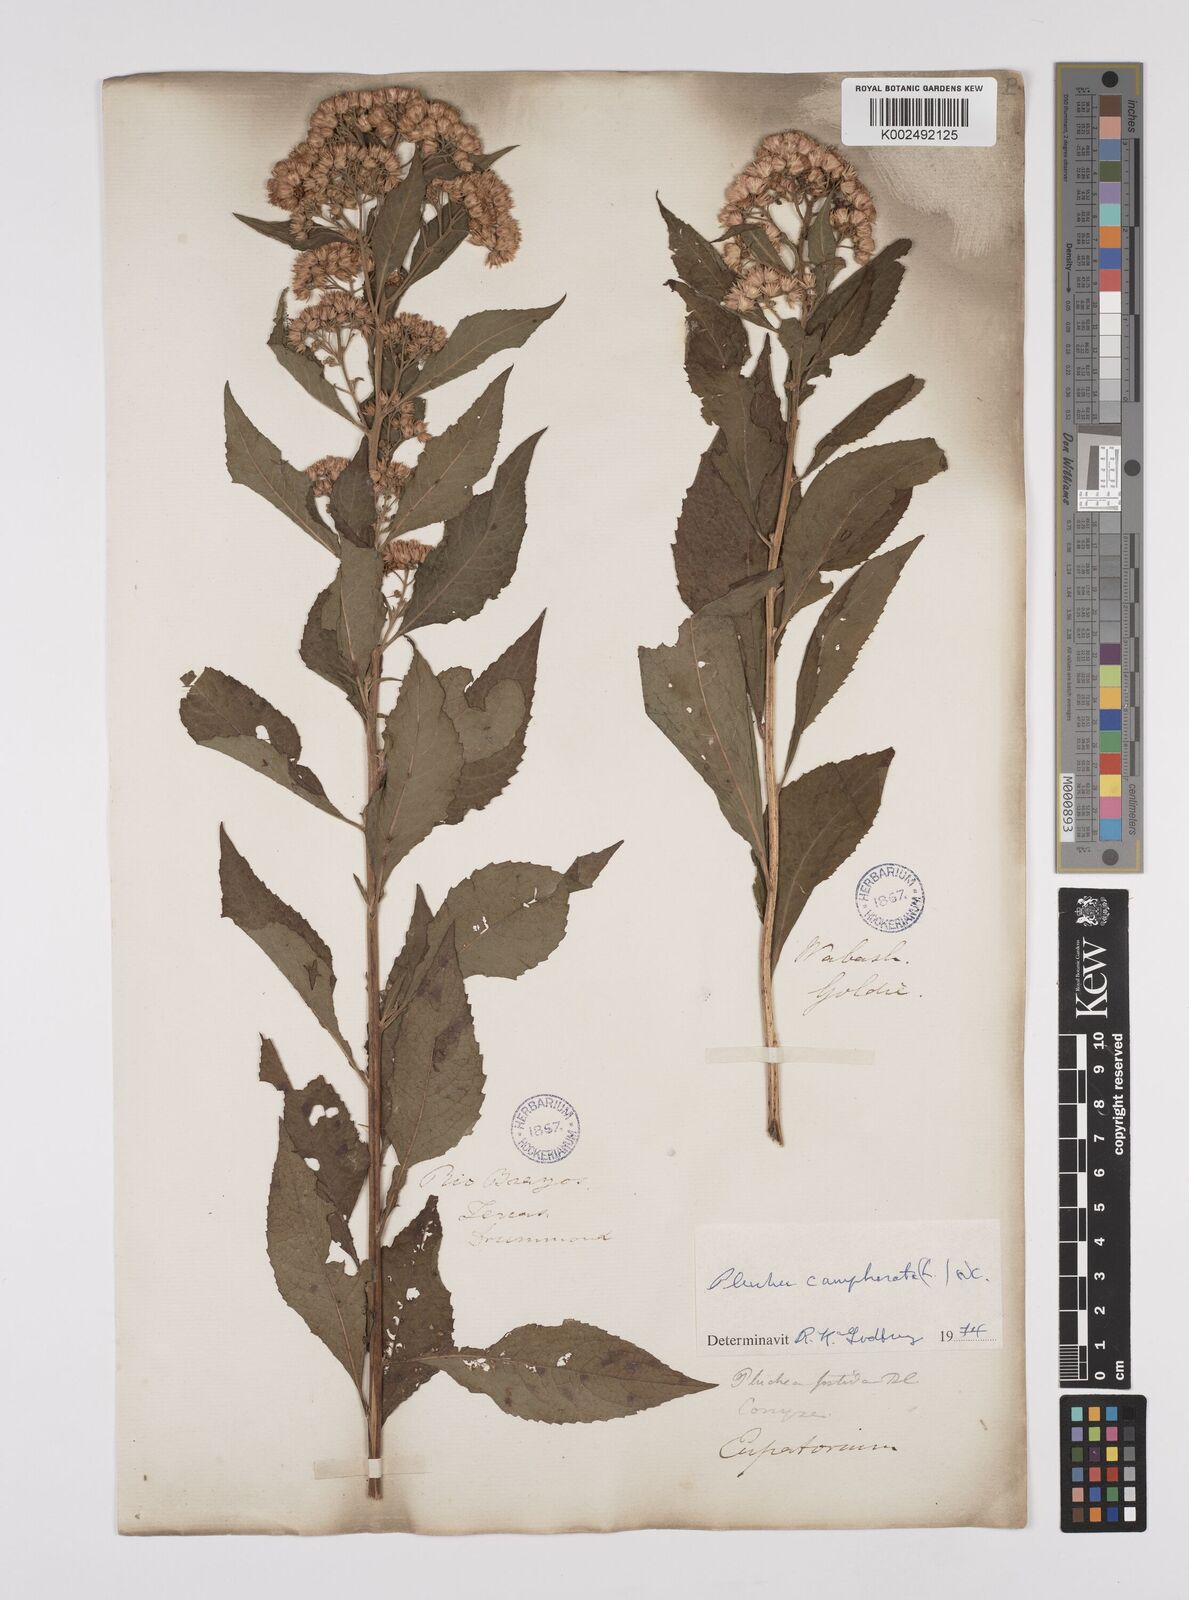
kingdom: Plantae
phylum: Tracheophyta
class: Magnoliopsida
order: Asterales
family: Asteraceae
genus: Pluchea
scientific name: Pluchea camphorata
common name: Camphor pluchea
